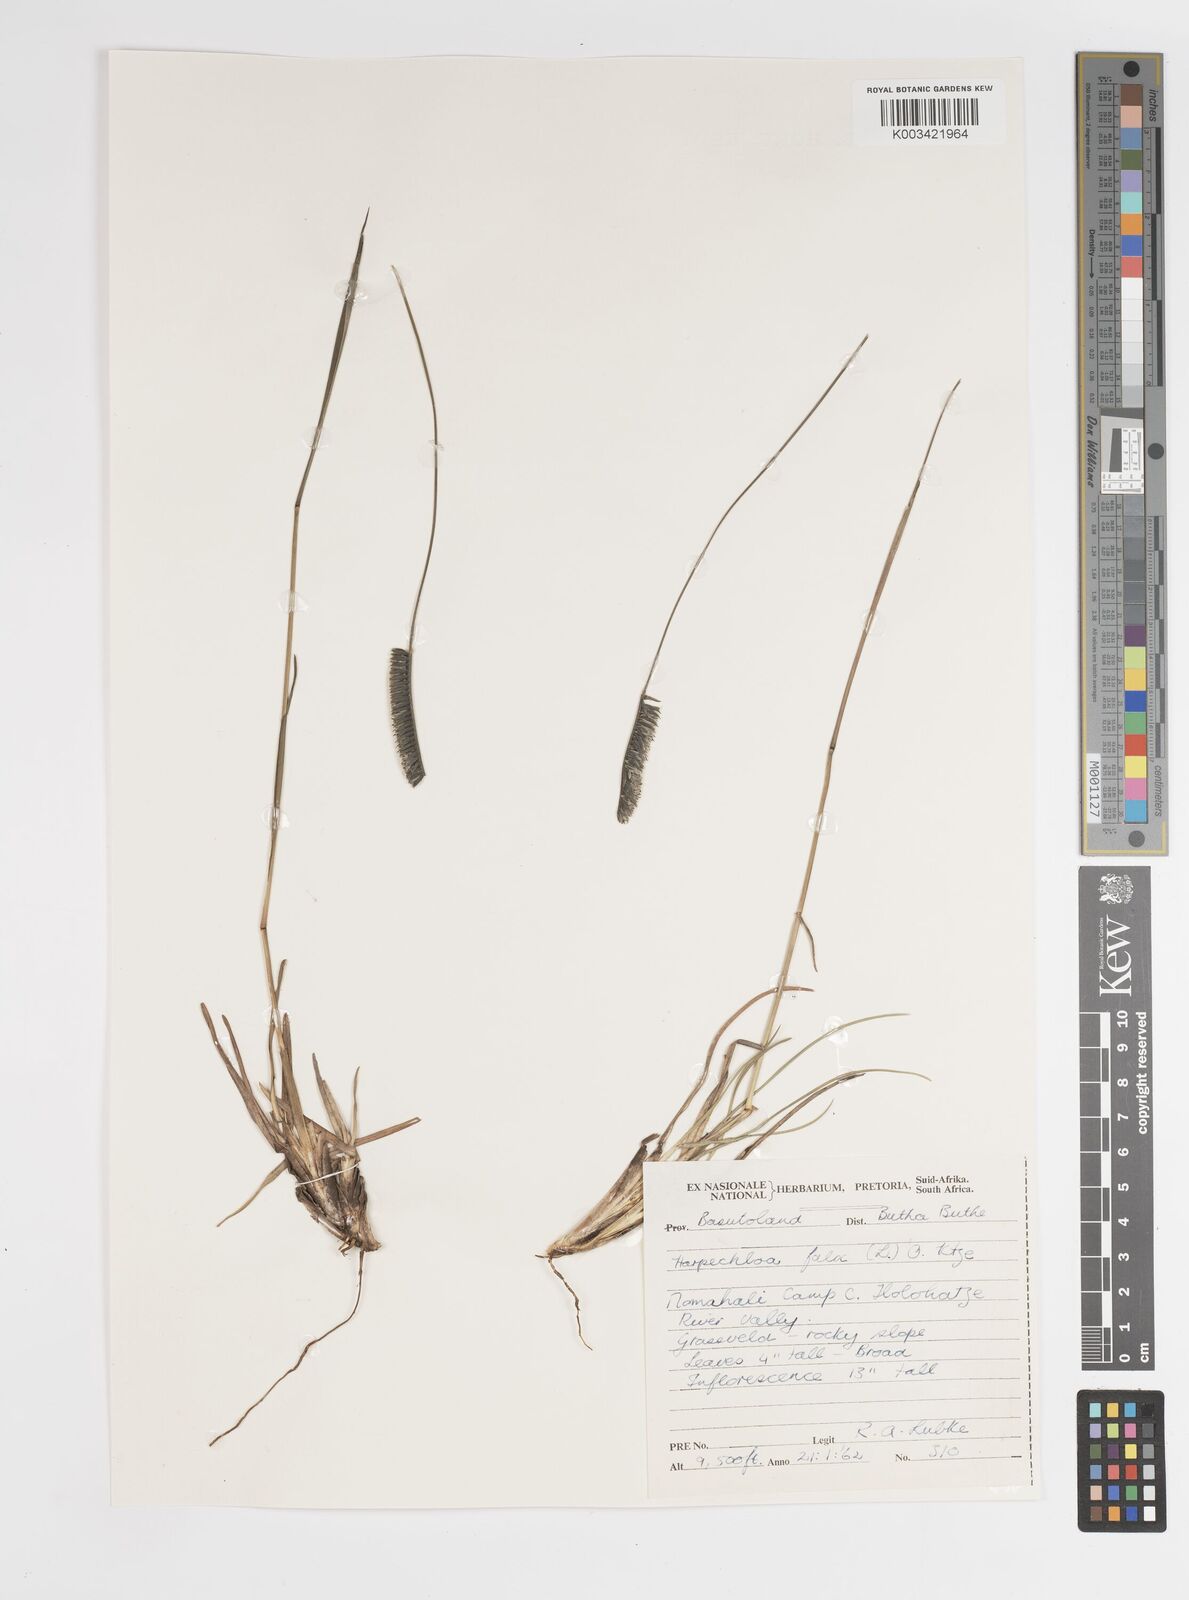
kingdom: Plantae
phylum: Tracheophyta
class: Liliopsida
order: Poales
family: Poaceae
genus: Harpochloa
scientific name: Harpochloa falx
